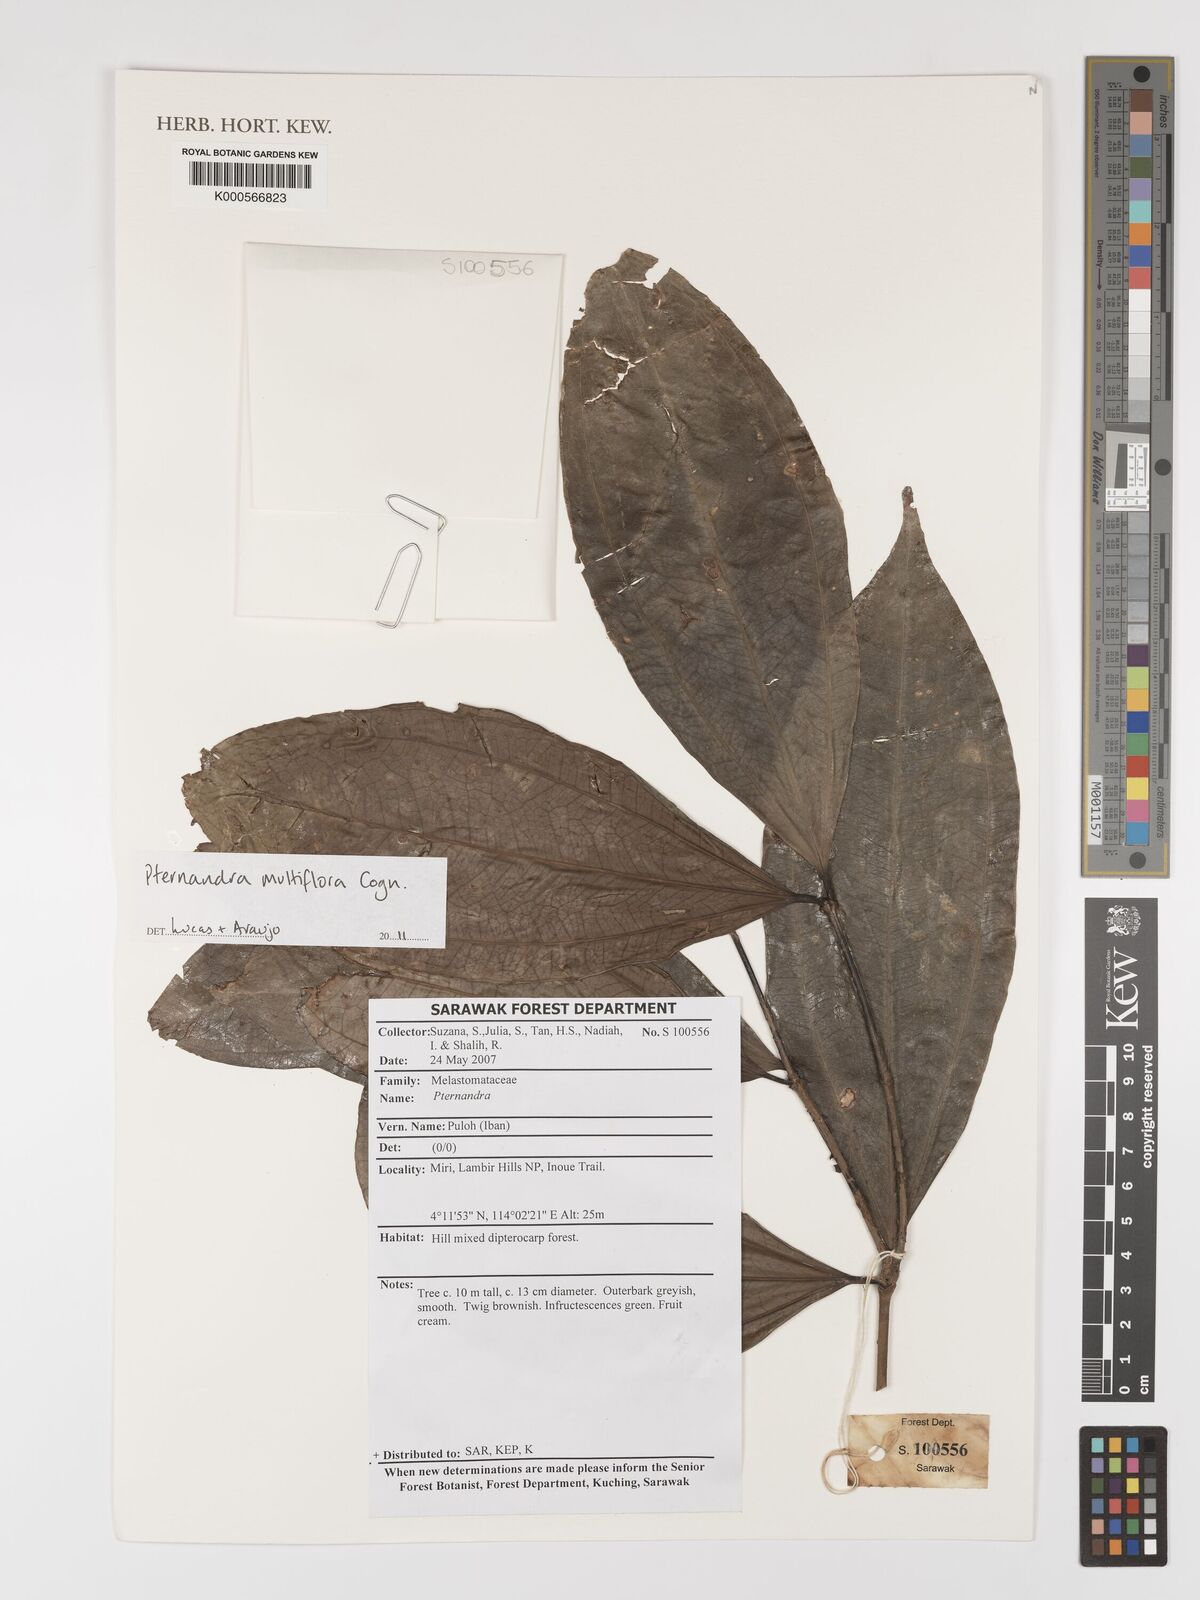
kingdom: Plantae
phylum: Tracheophyta
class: Magnoliopsida
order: Myrtales
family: Melastomataceae
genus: Pternandra
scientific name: Pternandra multiflora
